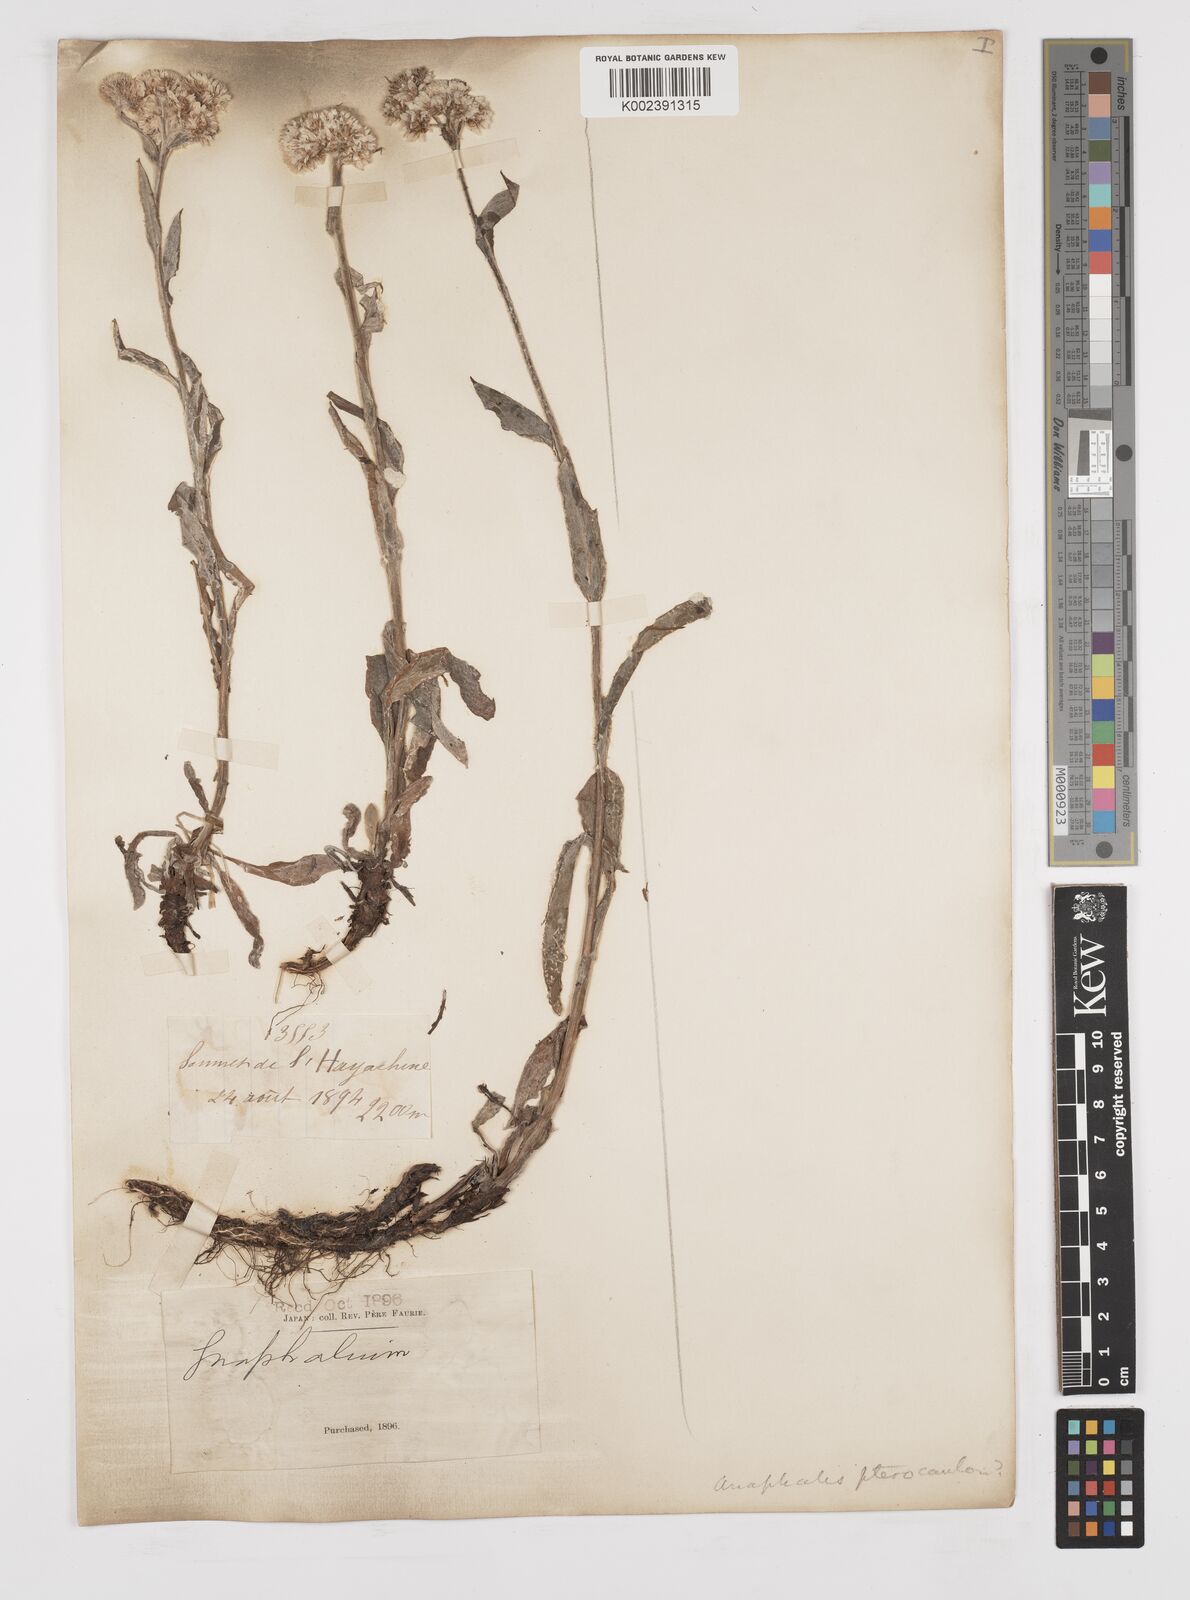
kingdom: Plantae
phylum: Tracheophyta
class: Magnoliopsida
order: Asterales
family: Asteraceae
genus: Anaphalis
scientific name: Anaphalis sinica
